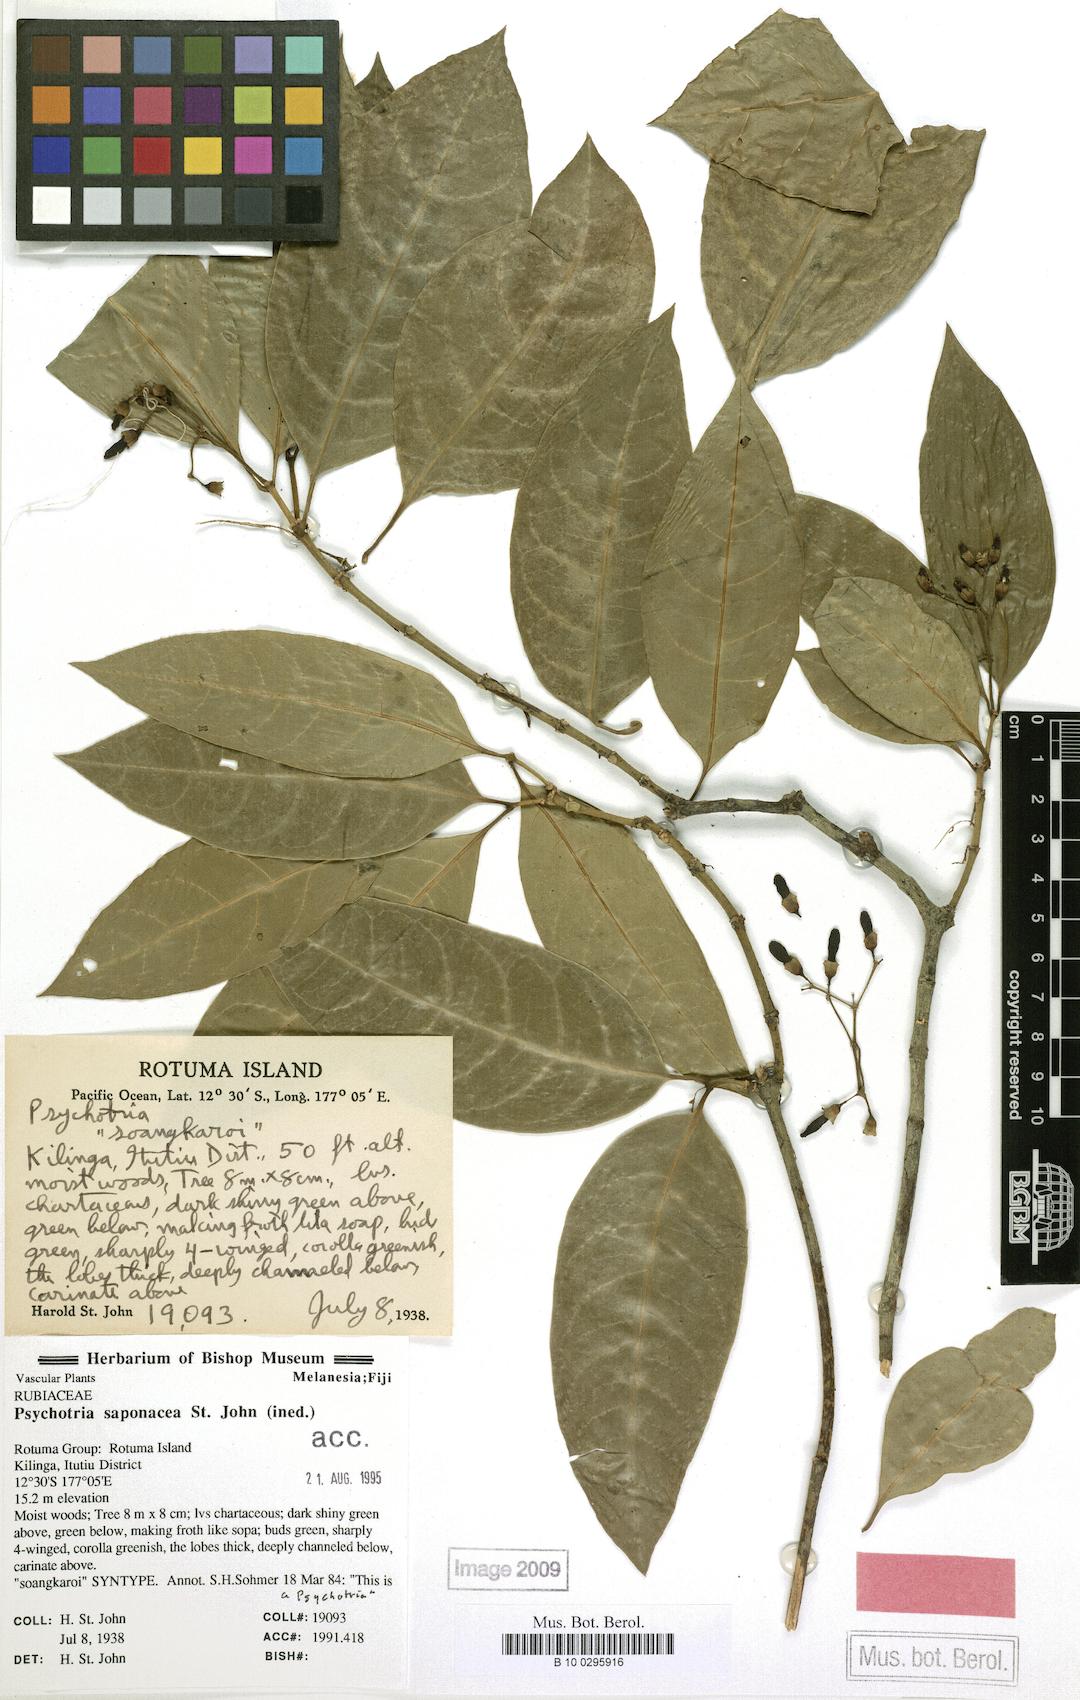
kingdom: Plantae
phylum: Tracheophyta
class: Magnoliopsida
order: Gentianales
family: Rubiaceae
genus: Psychotria
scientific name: Psychotria
